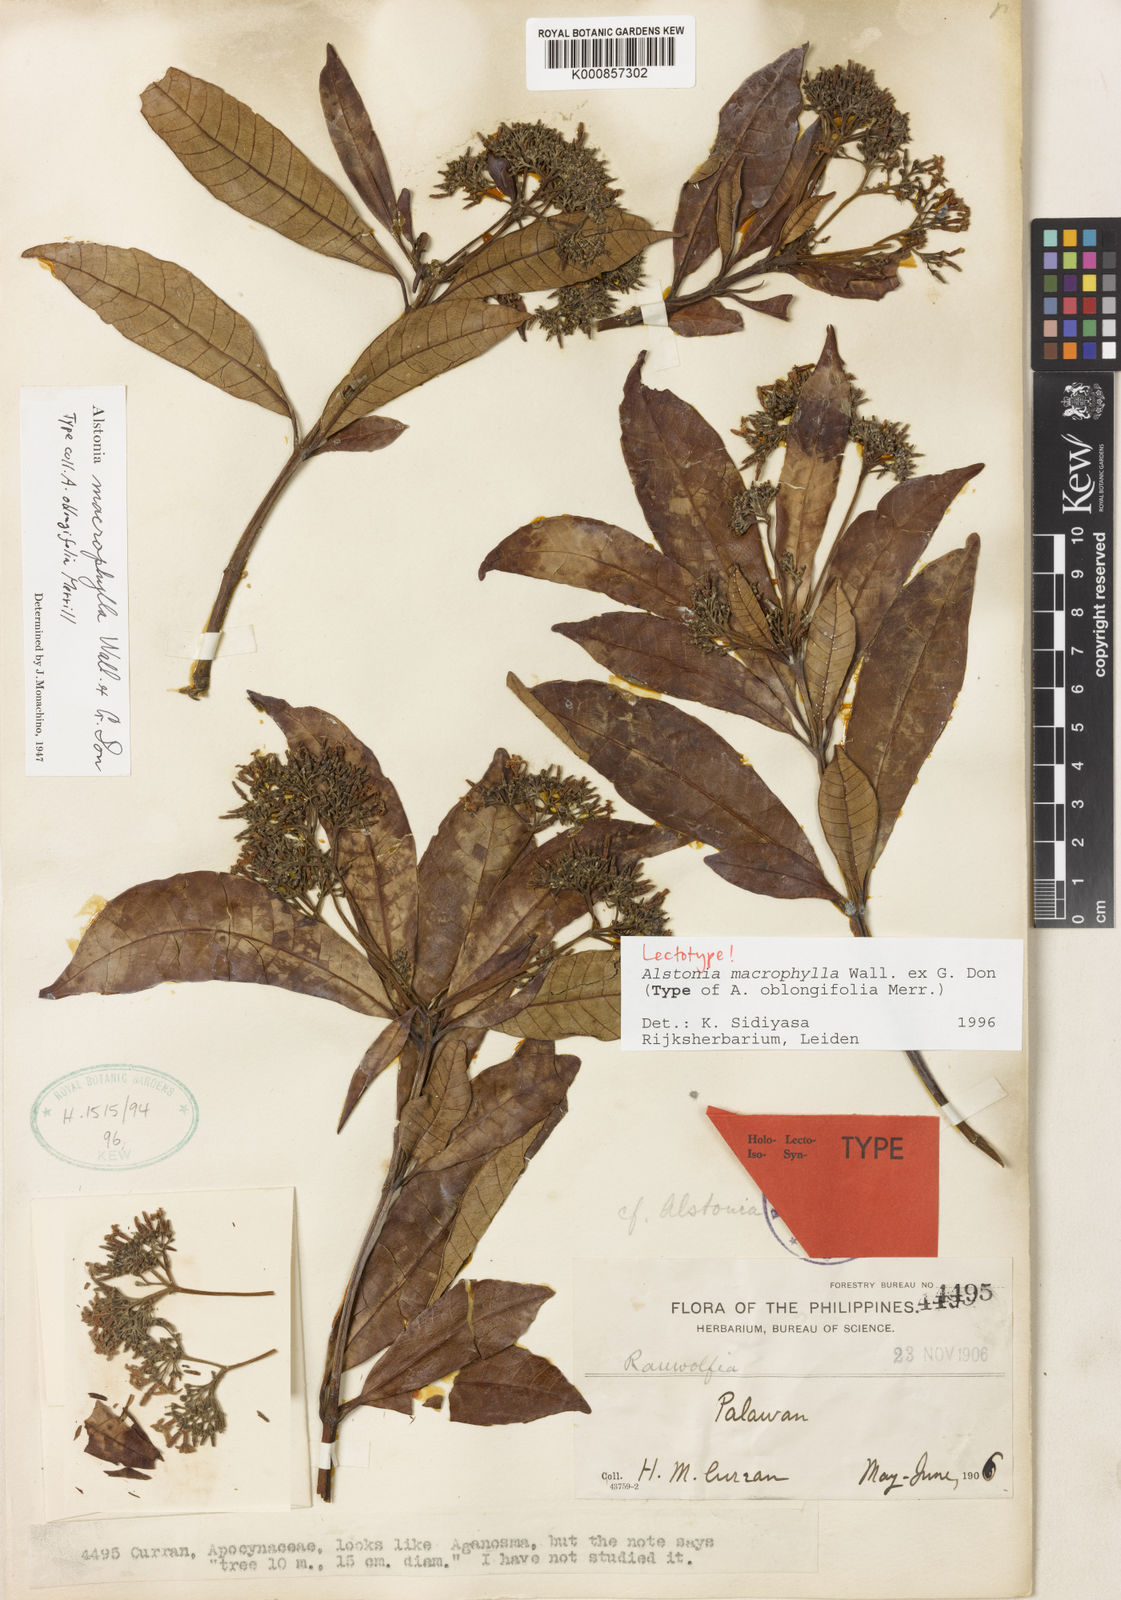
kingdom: Plantae
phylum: Tracheophyta
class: Magnoliopsida
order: Gentianales
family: Apocynaceae
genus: Alstonia
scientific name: Alstonia macrophylla
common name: Deviltree
